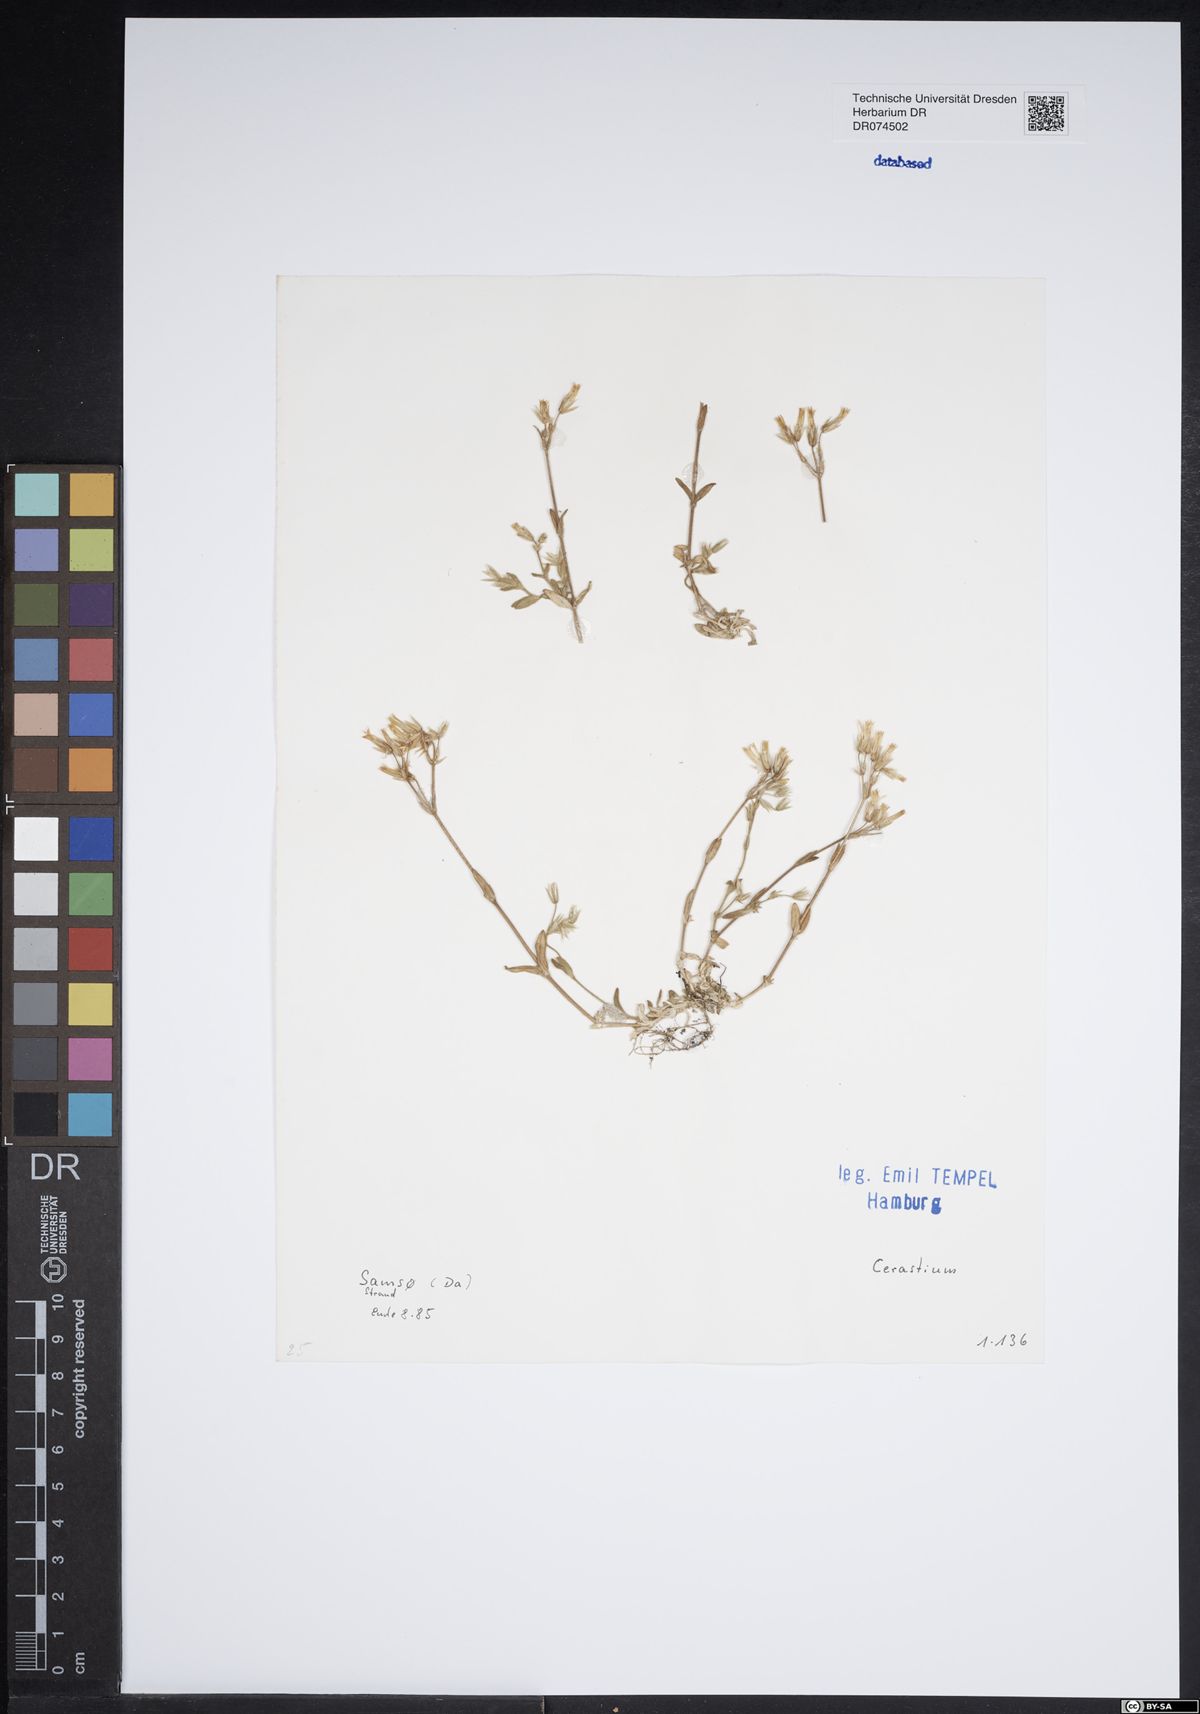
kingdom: Plantae
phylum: Tracheophyta
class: Magnoliopsida
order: Caryophyllales
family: Caryophyllaceae
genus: Cerastium
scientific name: Cerastium
